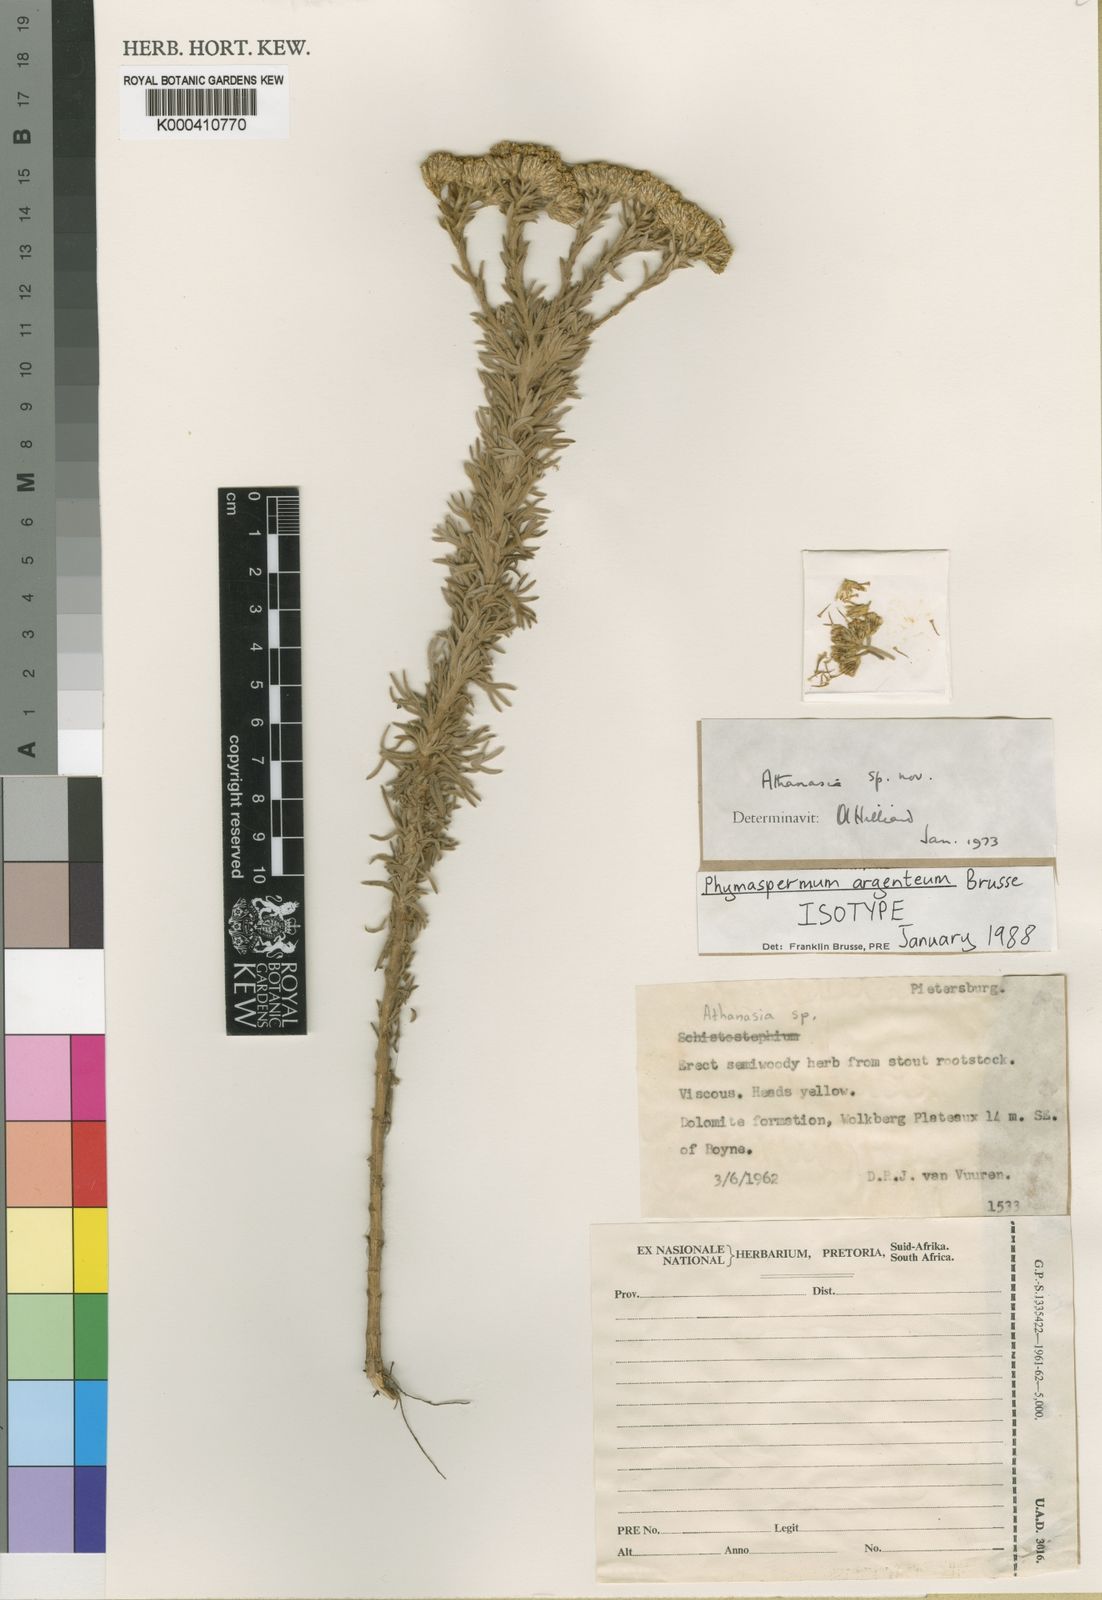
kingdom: Plantae
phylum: Tracheophyta
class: Magnoliopsida
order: Asterales
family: Asteraceae
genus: Phymaspermum
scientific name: Phymaspermum argenteum
